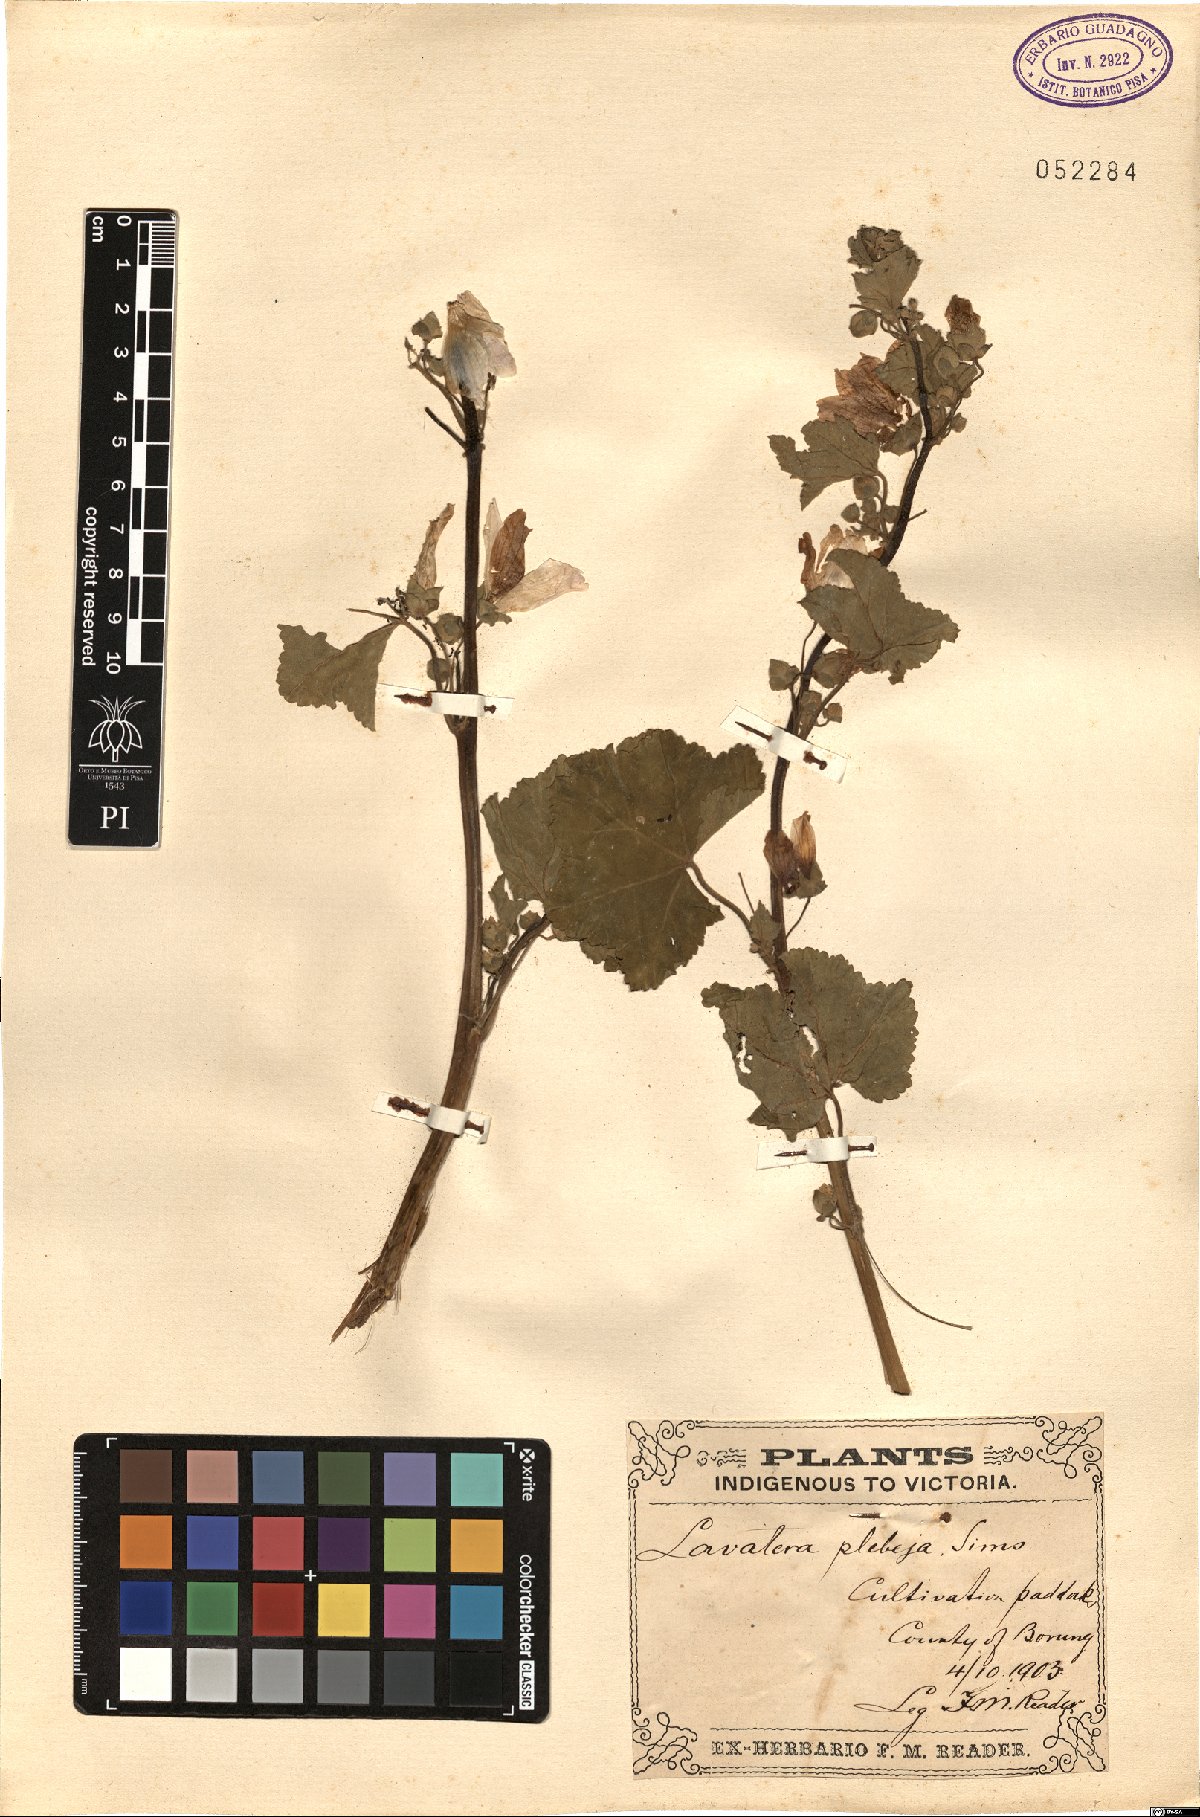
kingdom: Plantae
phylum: Tracheophyta
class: Magnoliopsida
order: Malvales
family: Malvaceae
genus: Malva
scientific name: Malva weinmanniana
